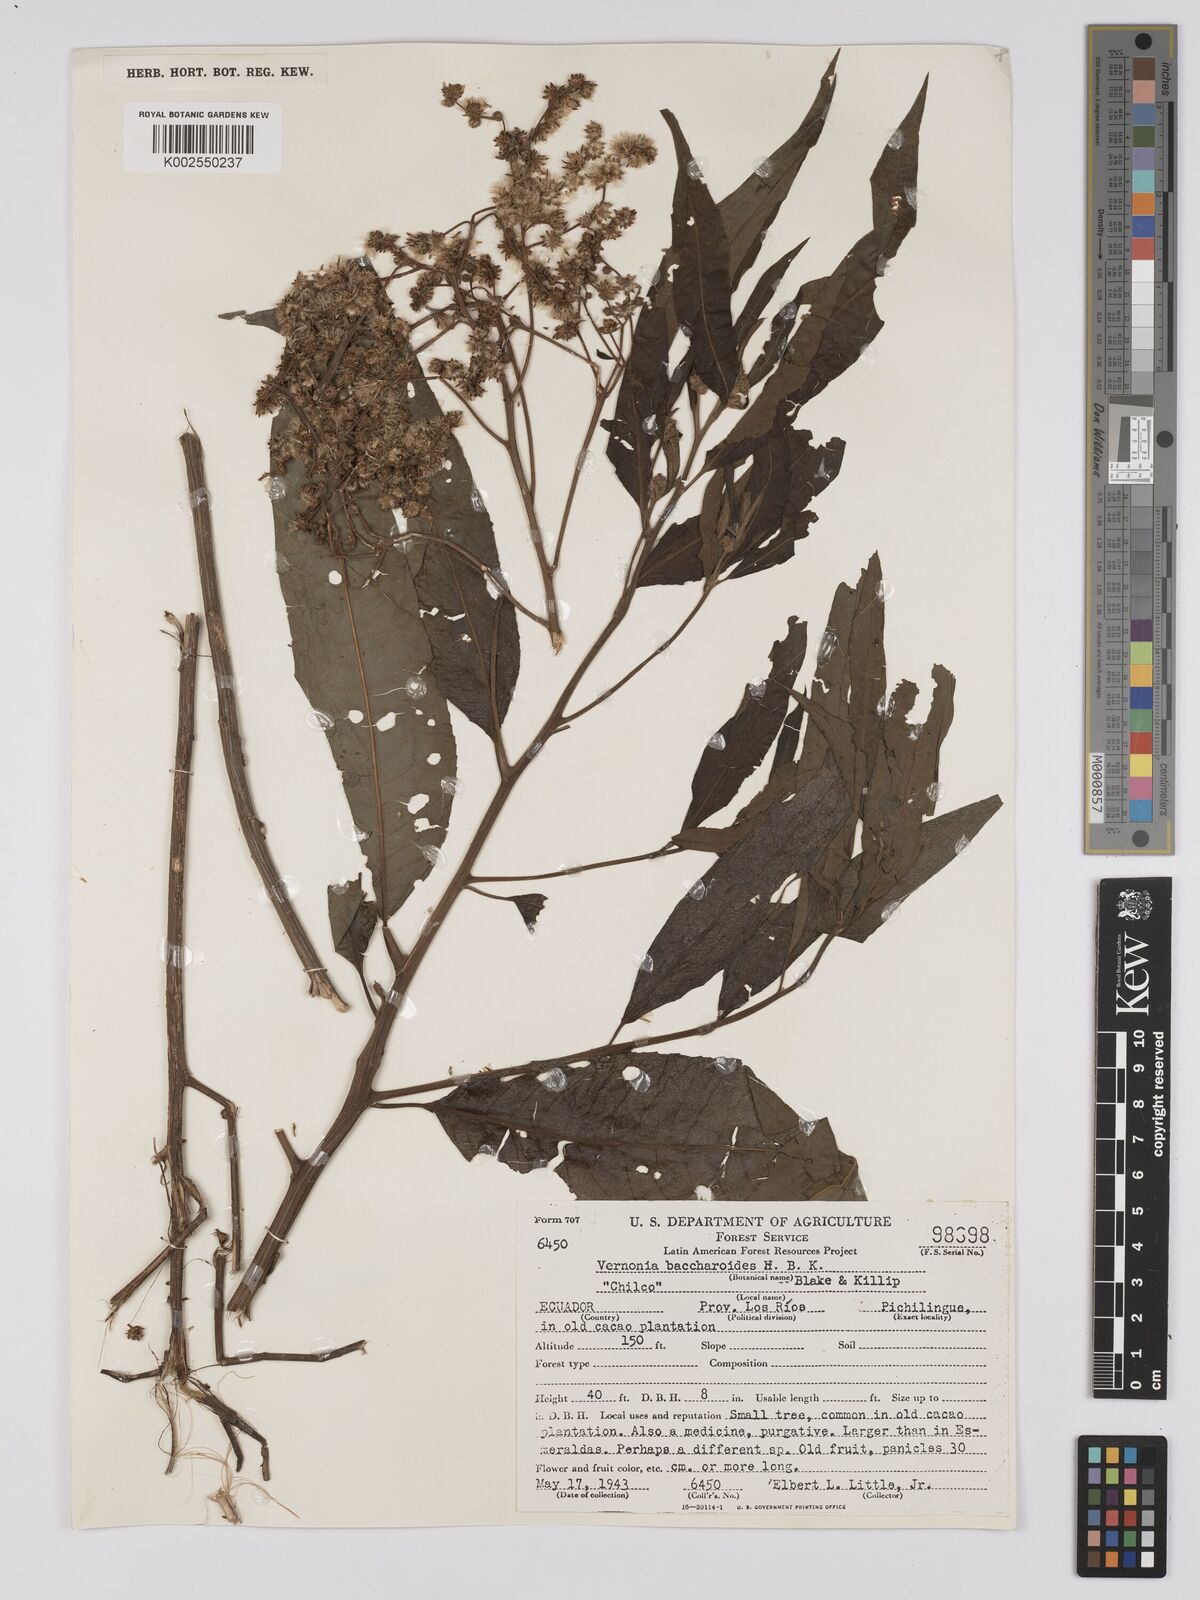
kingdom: Plantae
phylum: Tracheophyta
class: Magnoliopsida
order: Asterales
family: Asteraceae
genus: Vernonanthura
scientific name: Vernonanthura patens
